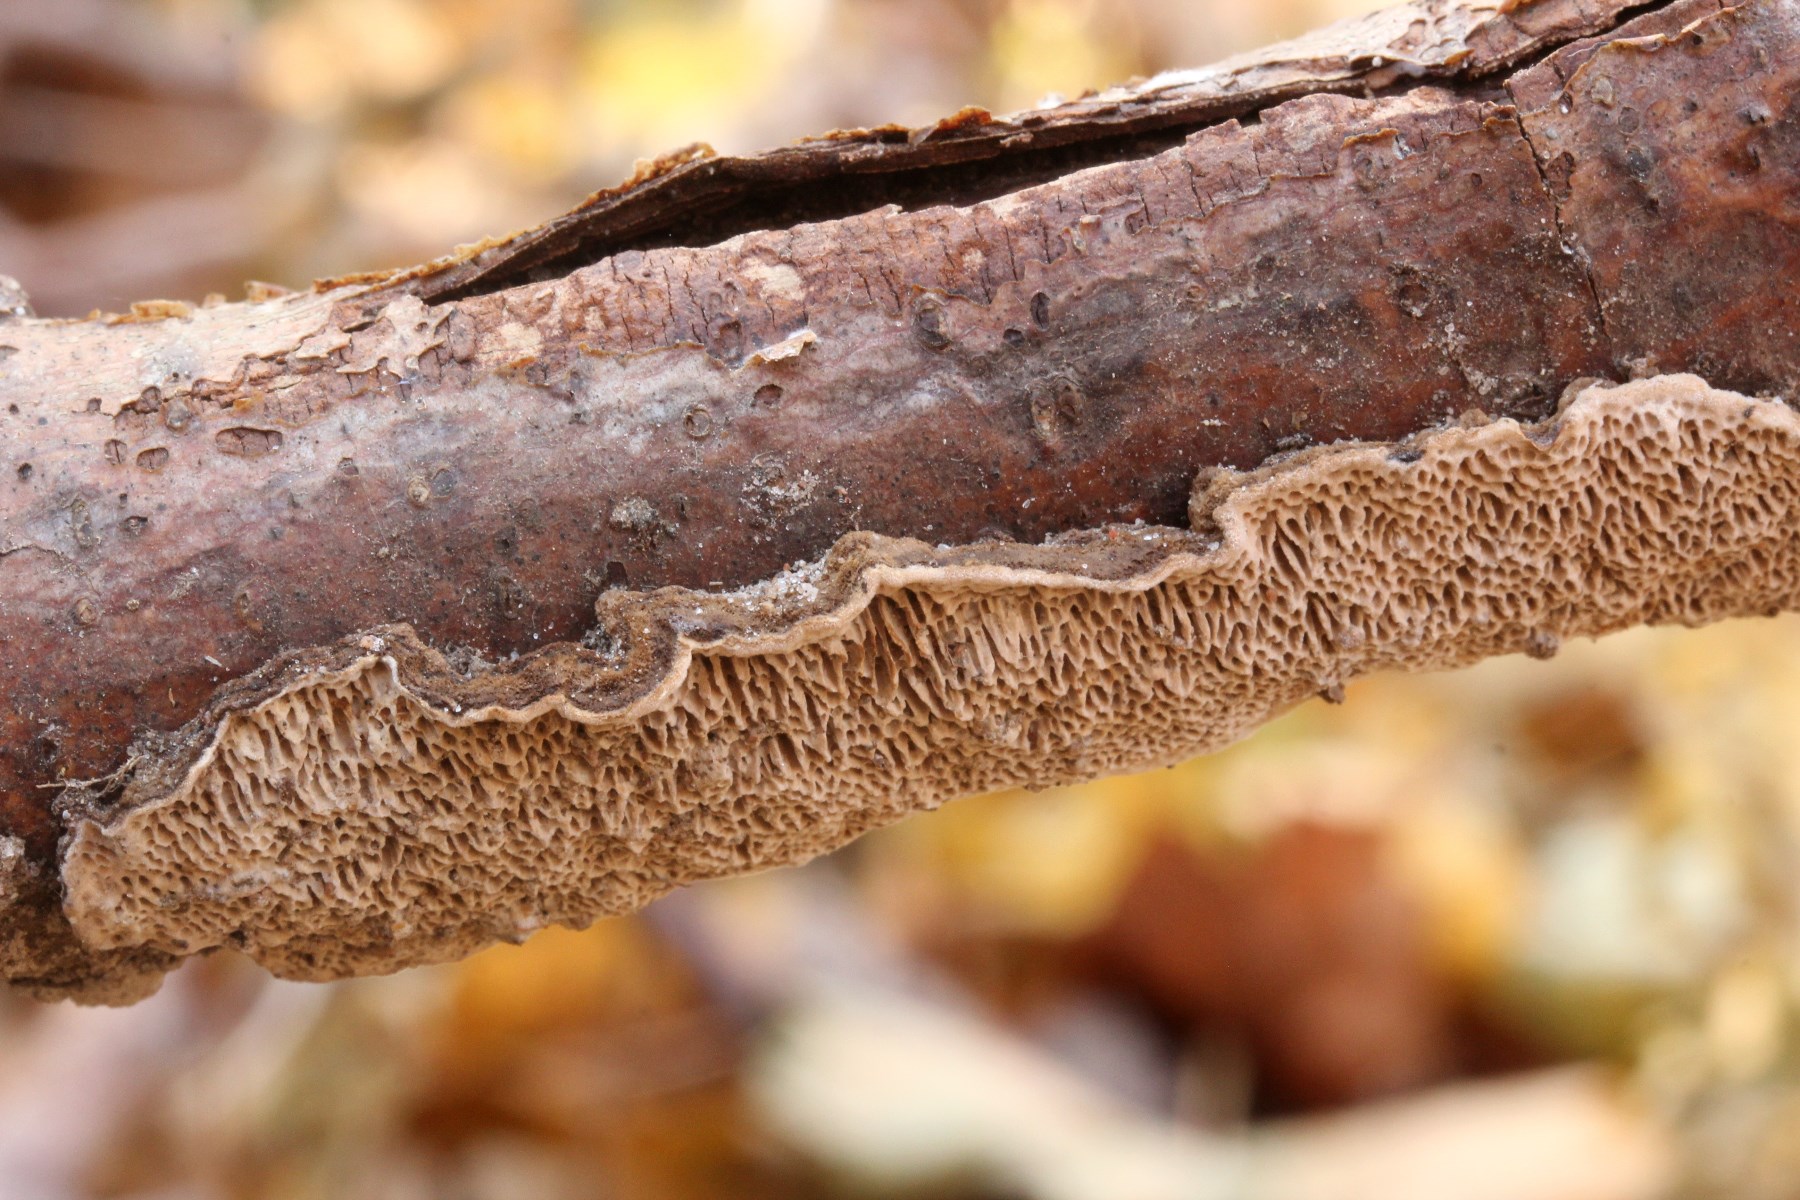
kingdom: Fungi
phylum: Basidiomycota
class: Agaricomycetes
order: Polyporales
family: Polyporaceae
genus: Podofomes
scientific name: Podofomes mollis
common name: blød begporesvamp
